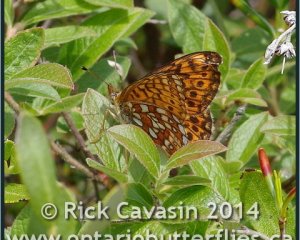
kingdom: Animalia
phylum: Arthropoda
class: Insecta
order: Lepidoptera
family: Nymphalidae
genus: Boloria
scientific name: Boloria eunomia
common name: Bog Fritillary
